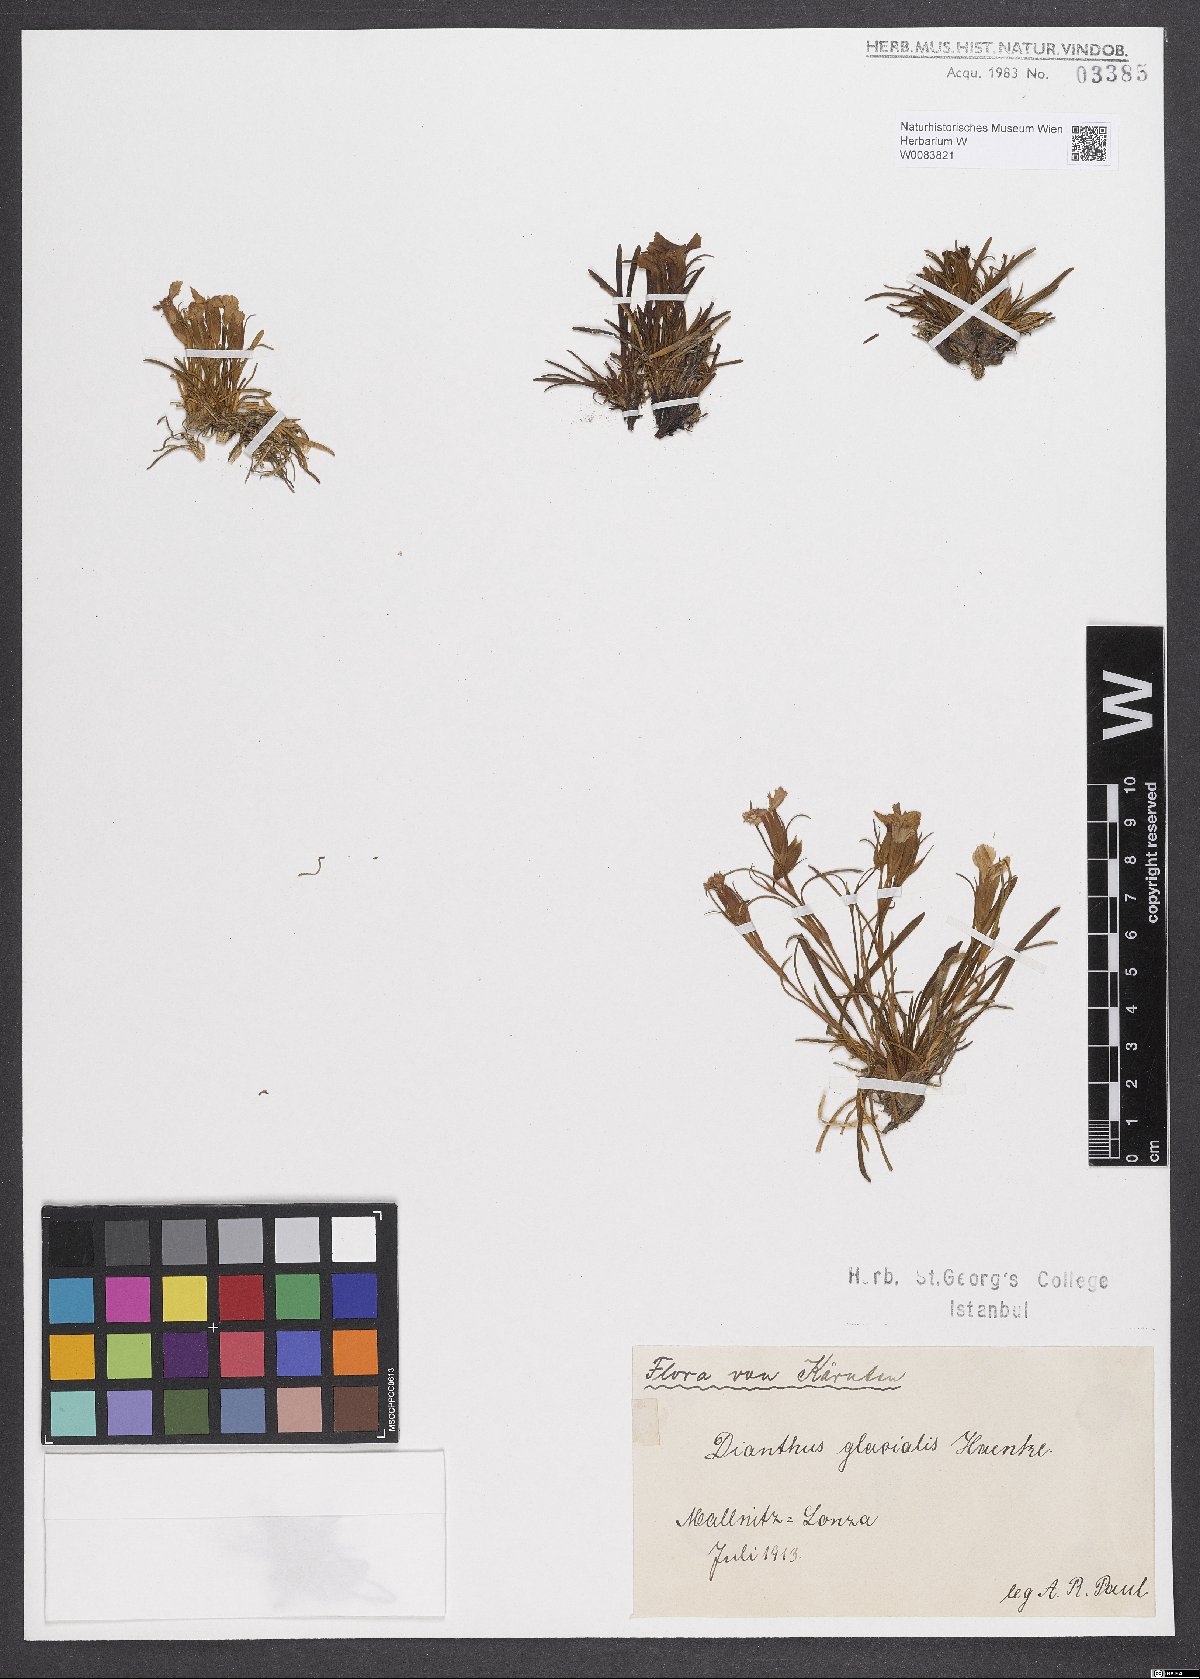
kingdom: Plantae
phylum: Tracheophyta
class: Magnoliopsida
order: Caryophyllales
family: Caryophyllaceae
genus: Dianthus
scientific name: Dianthus glacialis
